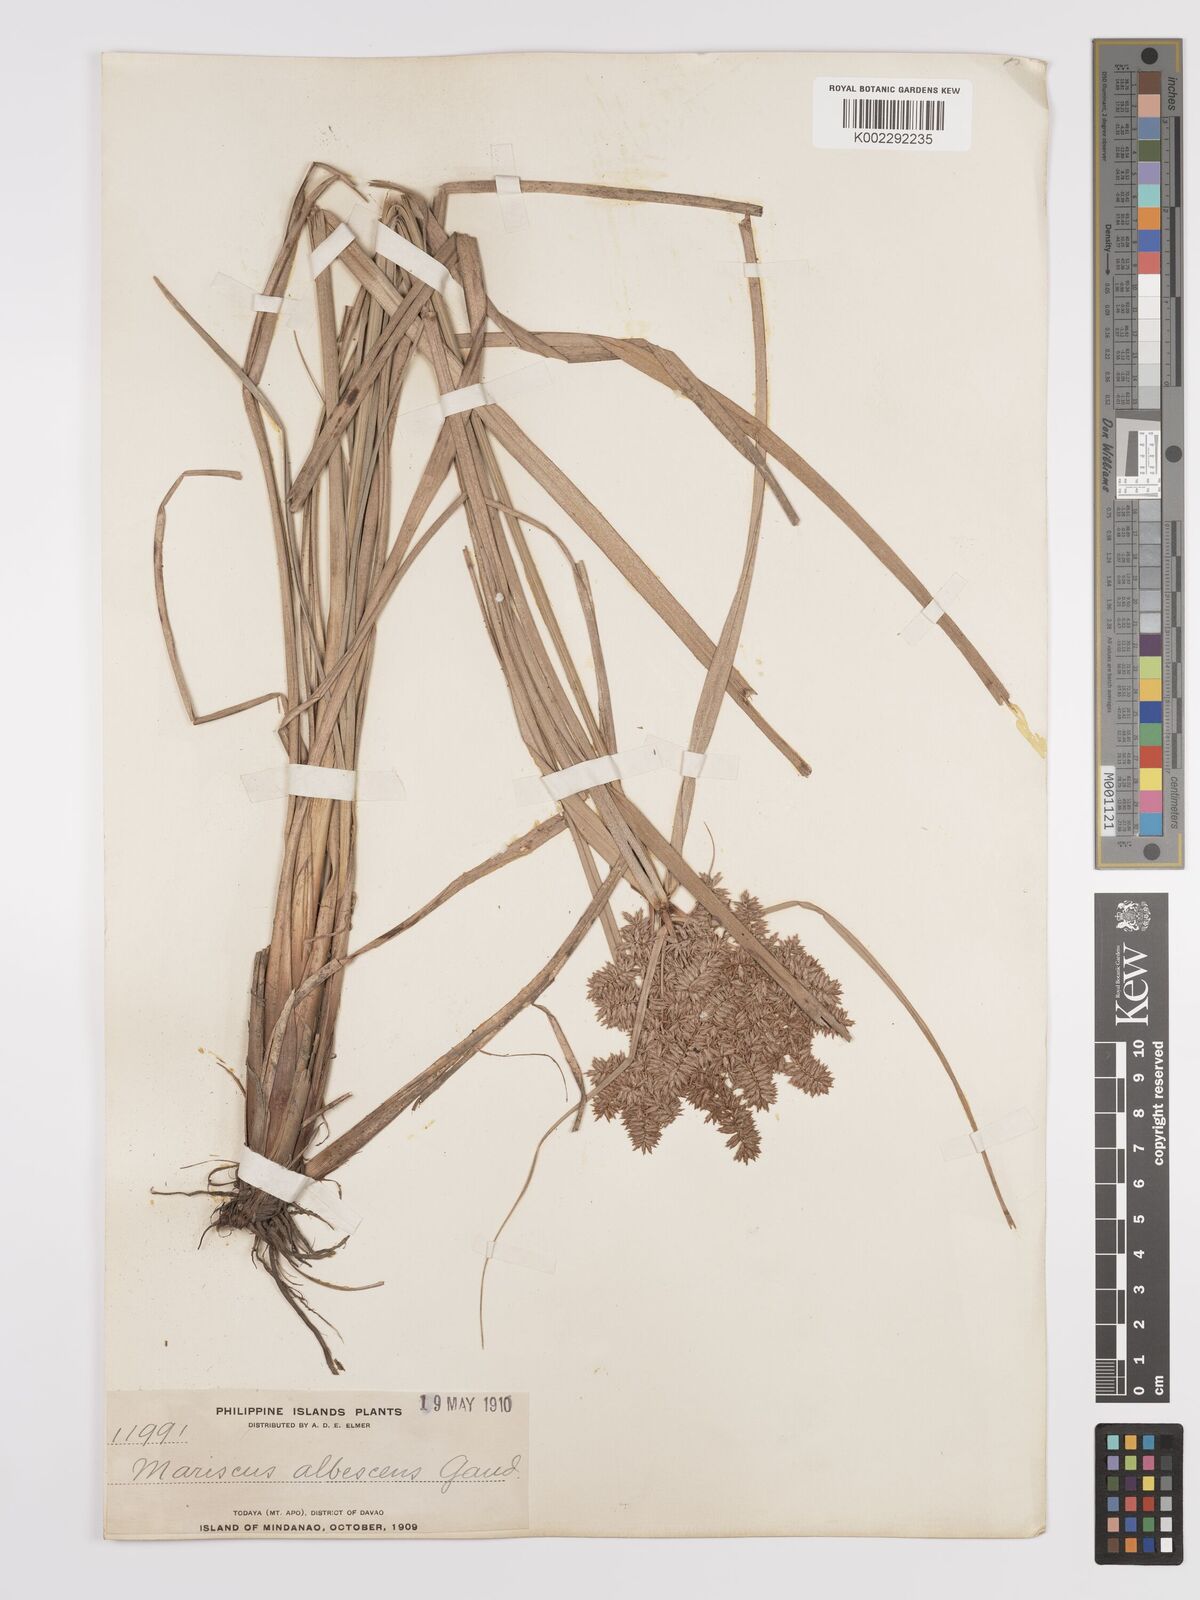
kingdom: Plantae
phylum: Tracheophyta
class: Liliopsida
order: Poales
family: Cyperaceae
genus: Cyperus
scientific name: Cyperus javanicus
